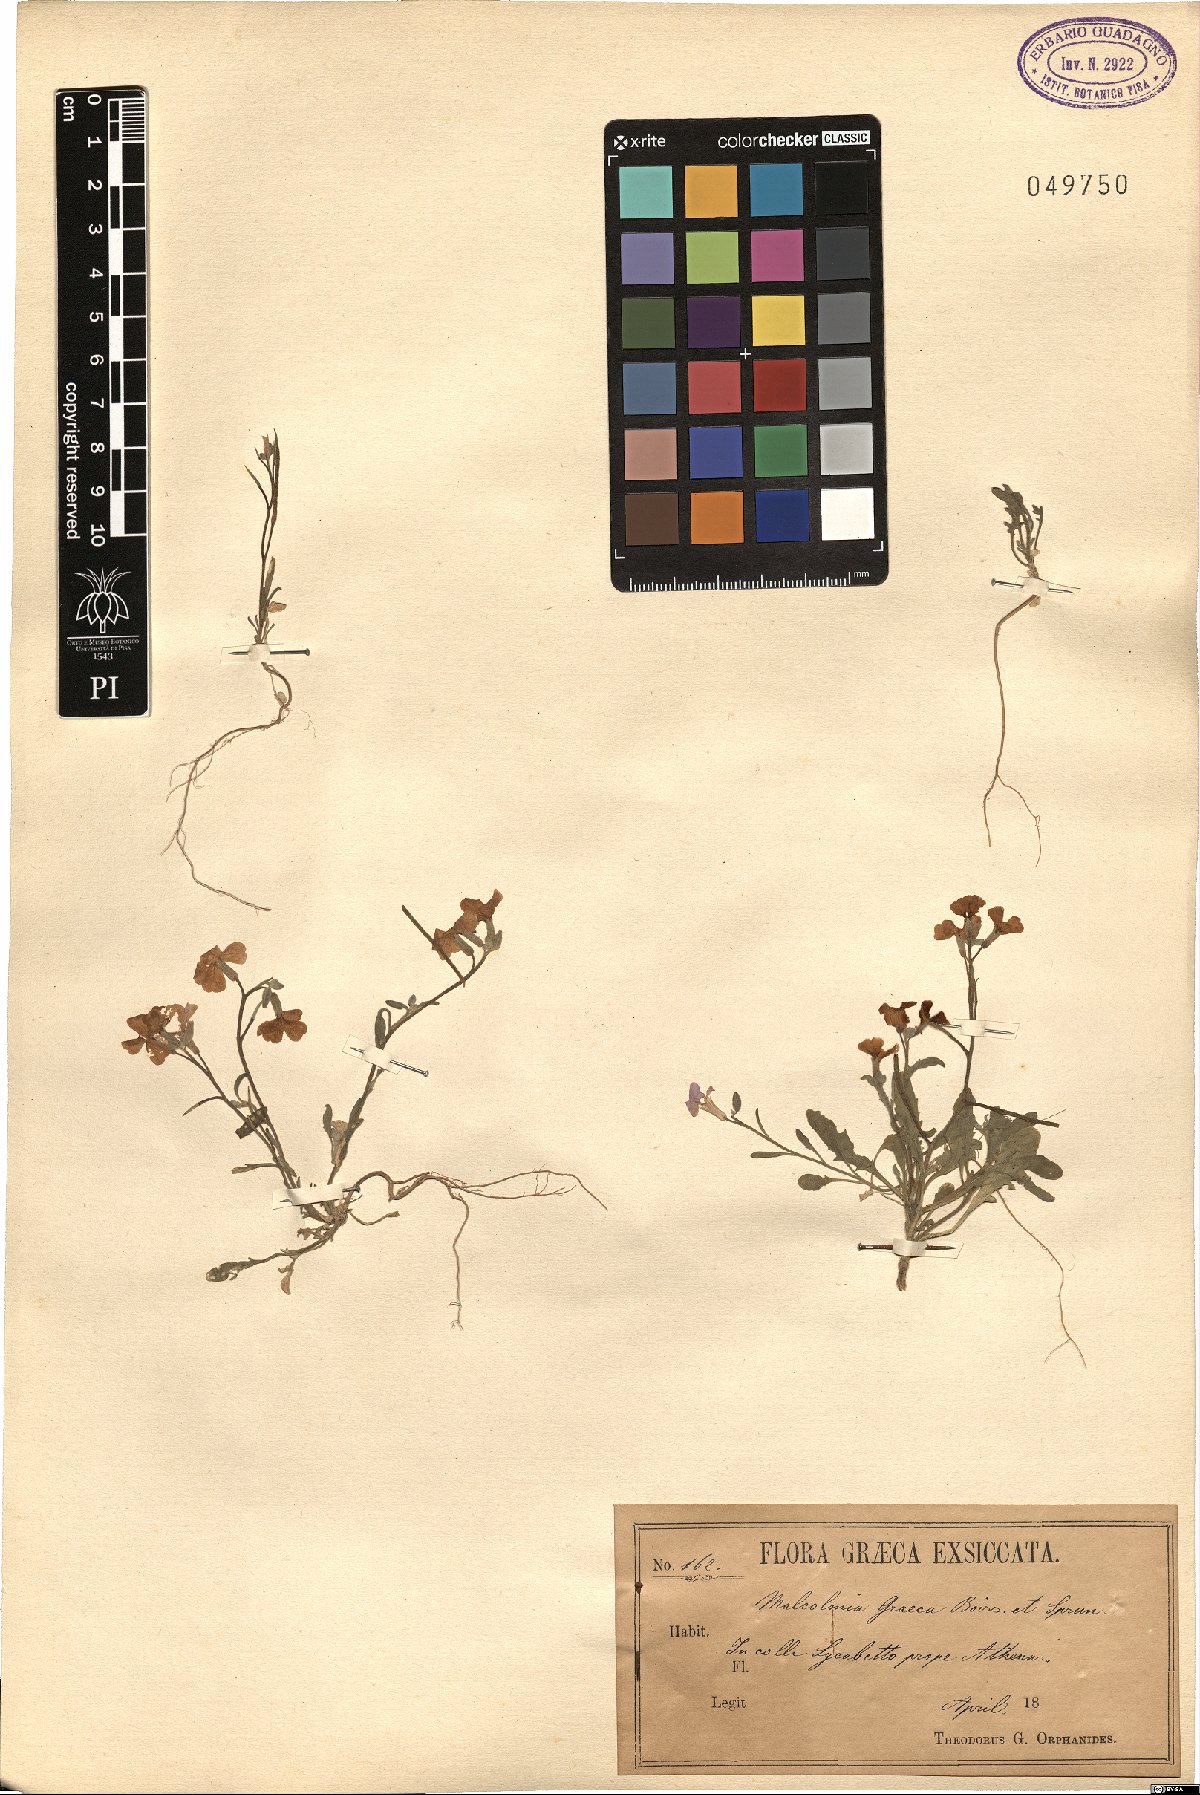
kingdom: Plantae
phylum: Tracheophyta
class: Magnoliopsida
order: Brassicales
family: Brassicaceae
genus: Malcolmia
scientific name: Malcolmia graeca
